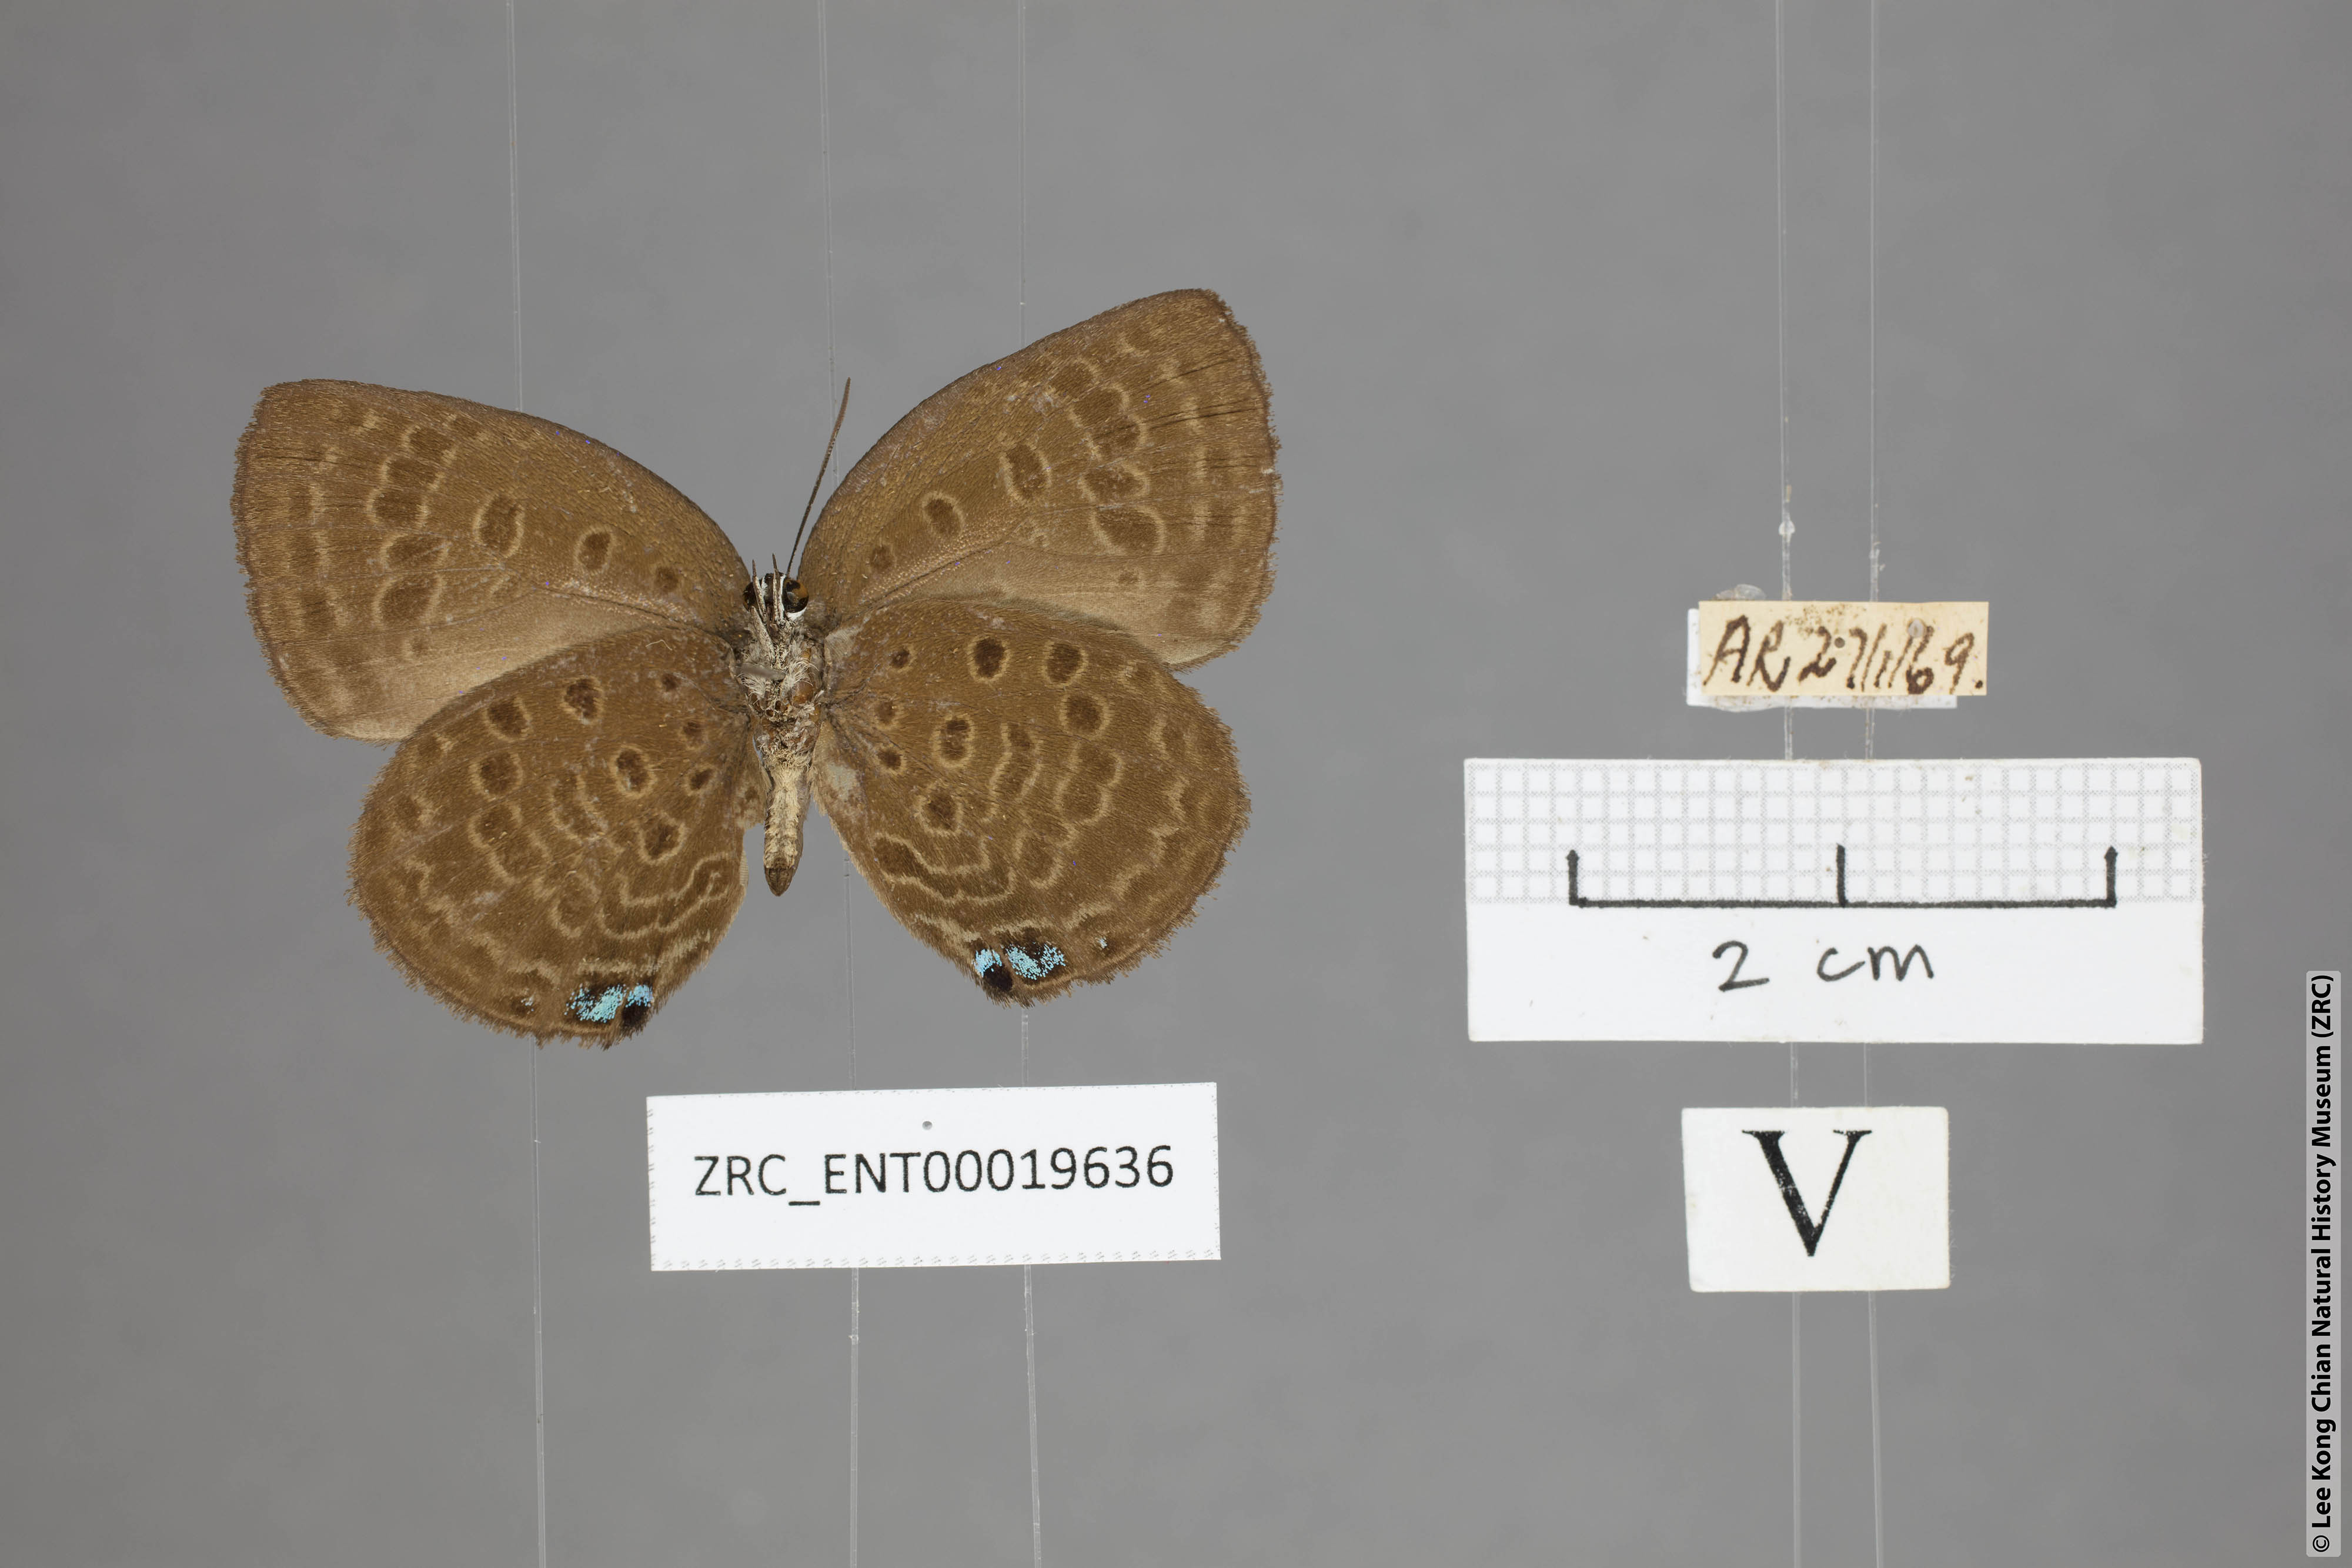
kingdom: Animalia
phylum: Arthropoda
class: Insecta
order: Lepidoptera
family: Lycaenidae
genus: Arhopala
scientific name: Arhopala major
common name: Major yellow oakblue
